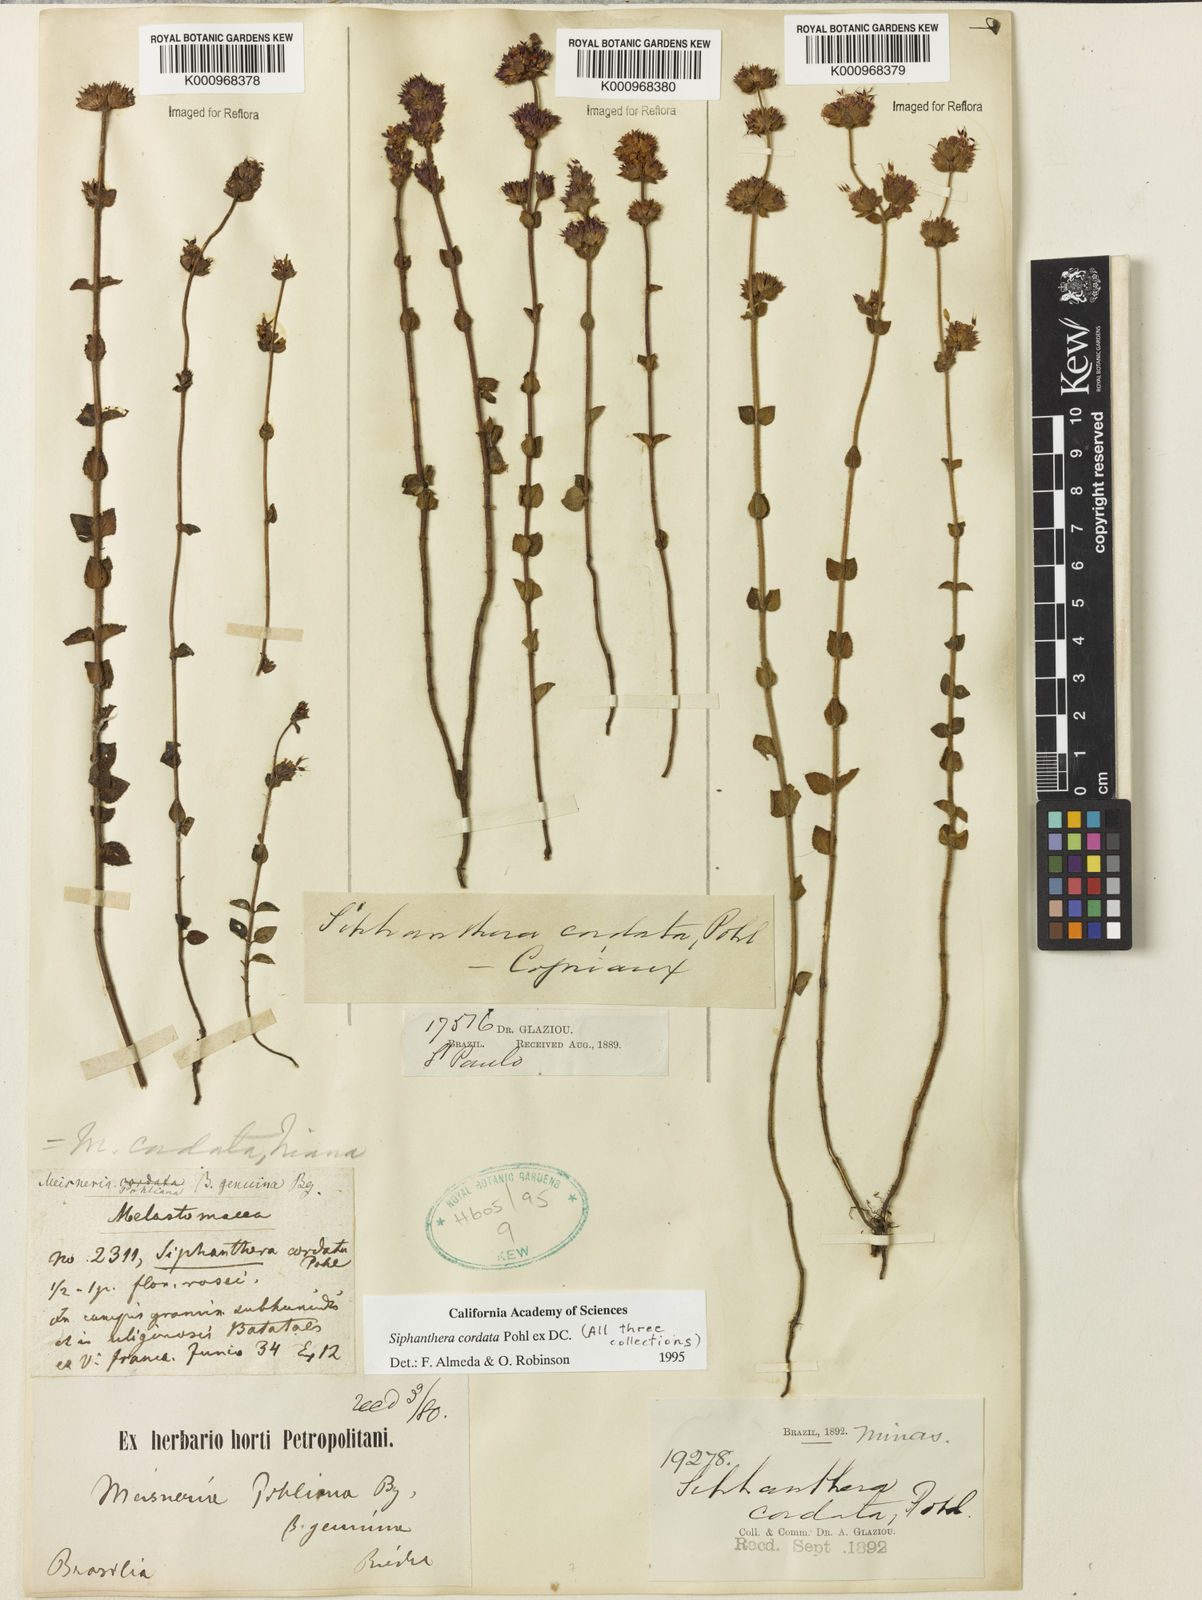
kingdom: Plantae
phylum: Tracheophyta
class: Magnoliopsida
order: Myrtales
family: Melastomataceae
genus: Siphanthera
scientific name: Siphanthera
